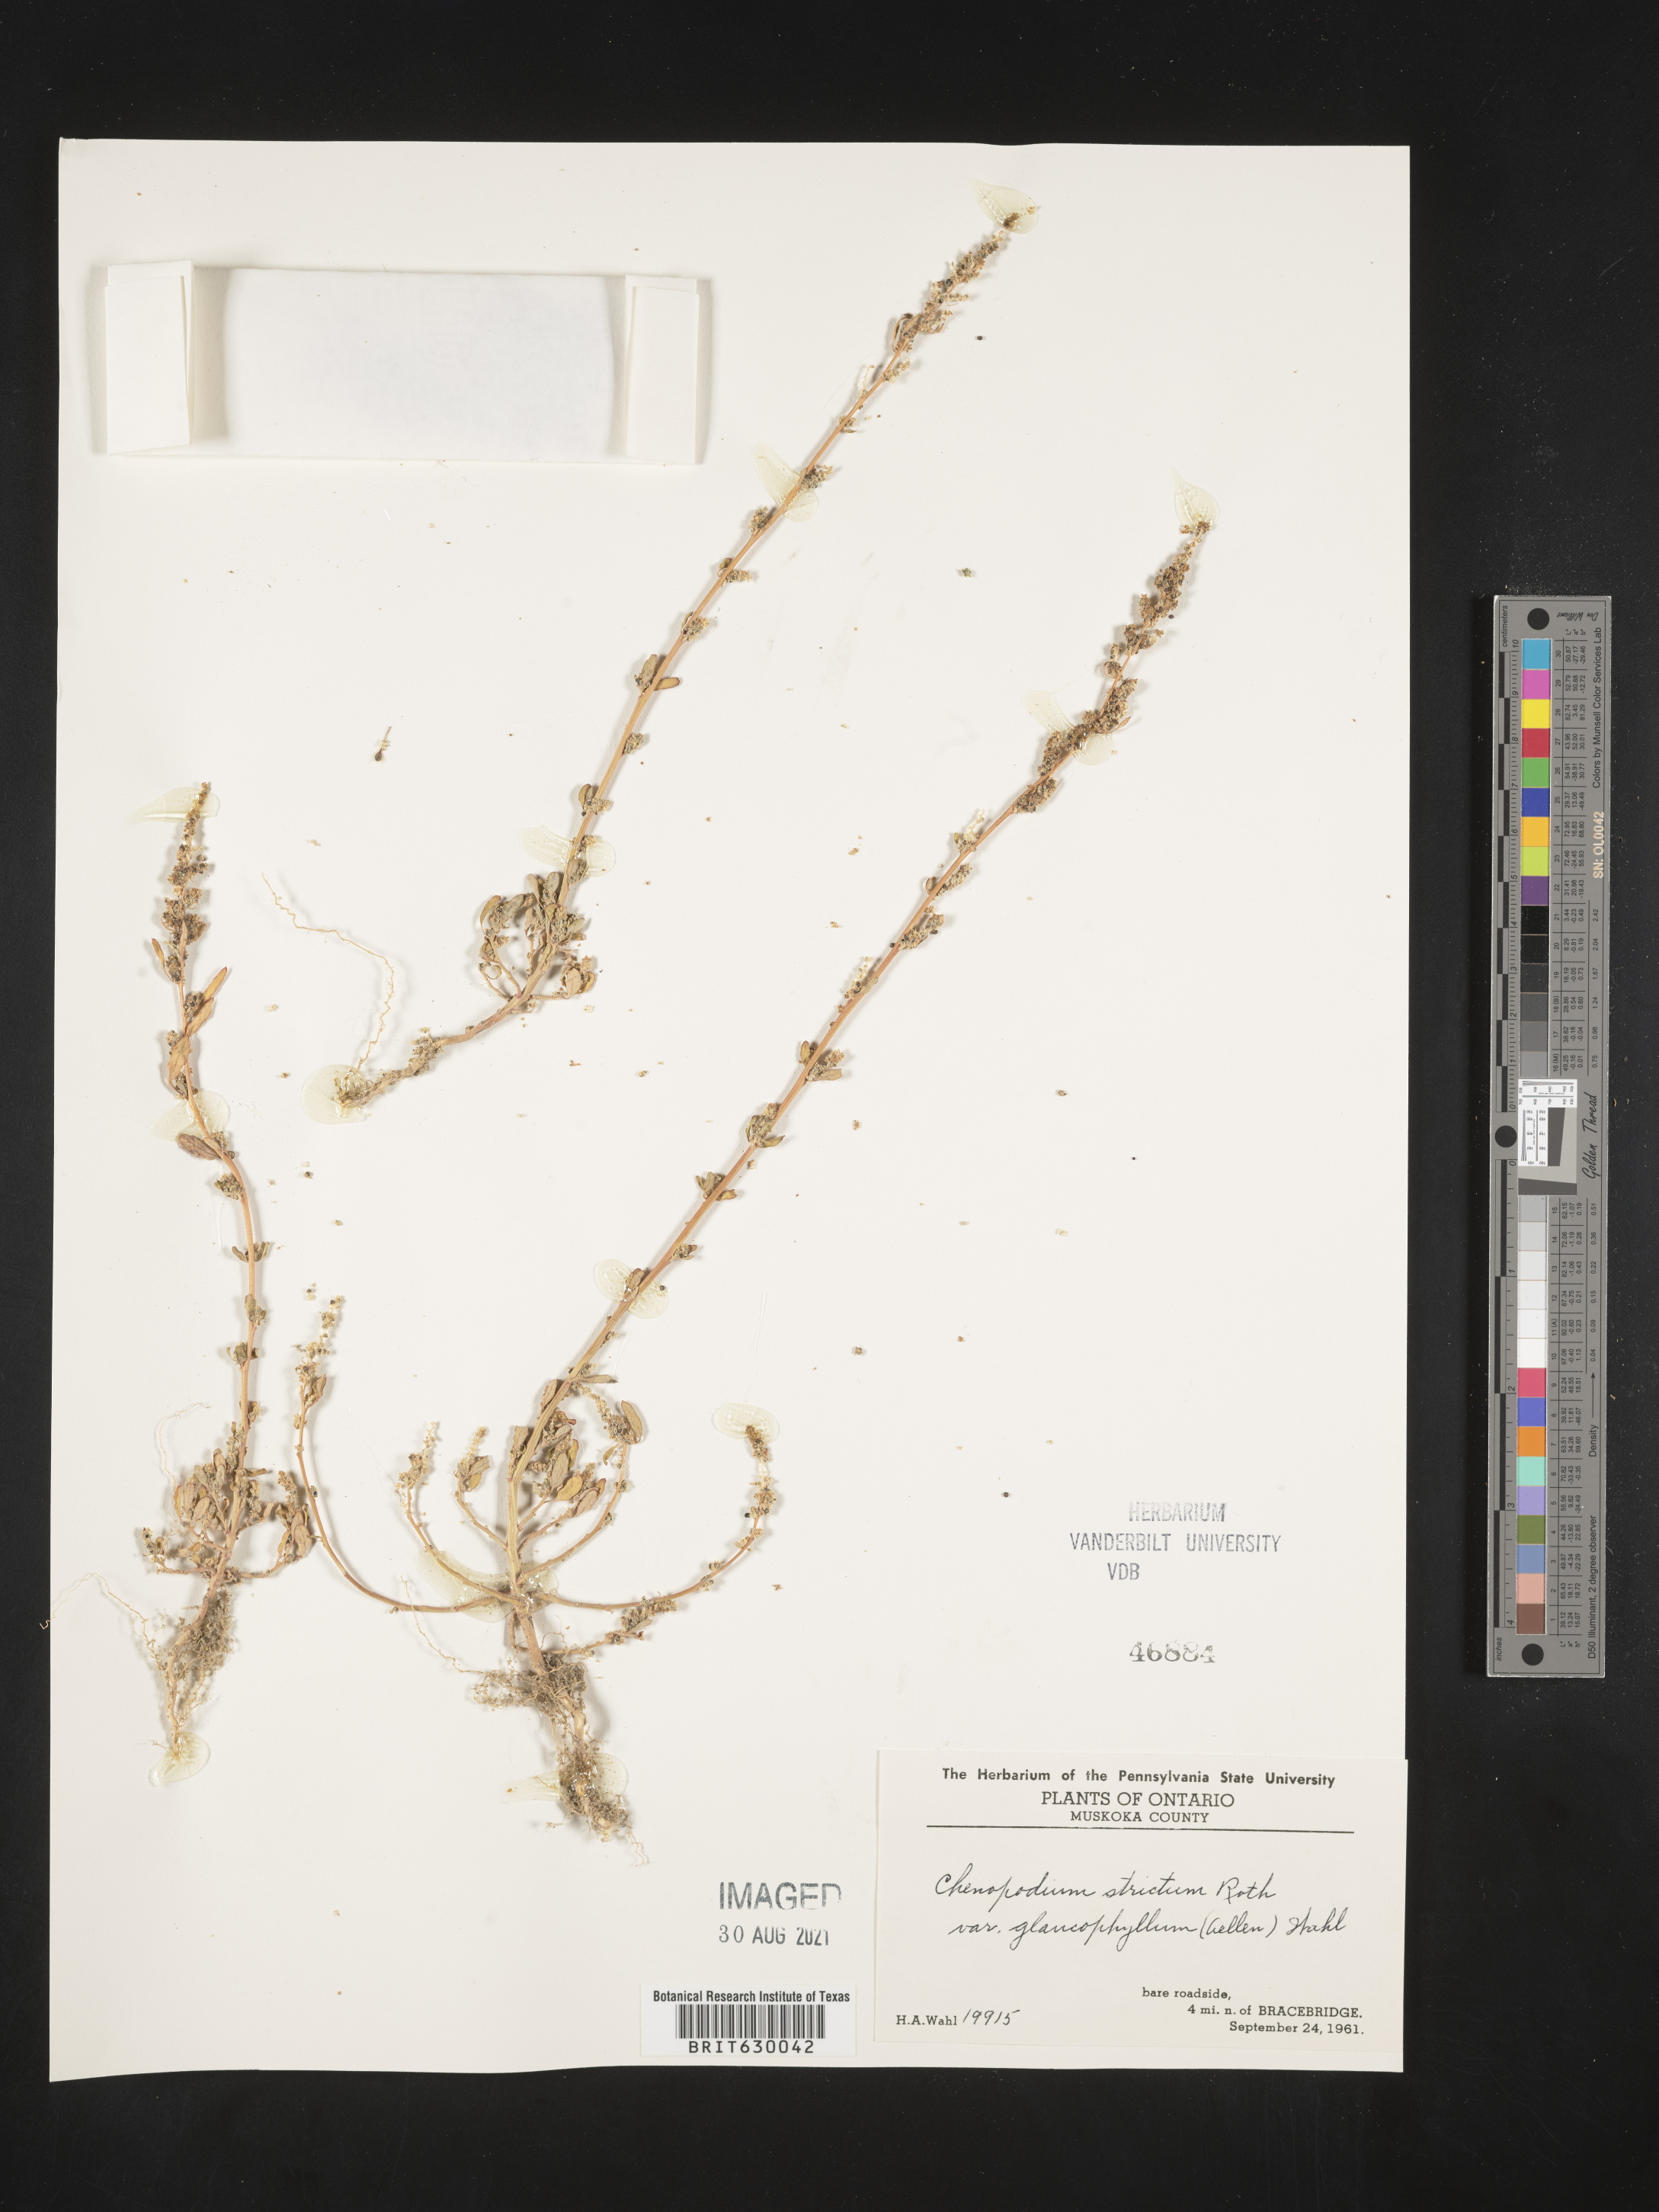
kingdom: Plantae
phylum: Tracheophyta
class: Magnoliopsida
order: Caryophyllales
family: Amaranthaceae
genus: Chenopodium
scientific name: Chenopodium album
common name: Fat-hen
